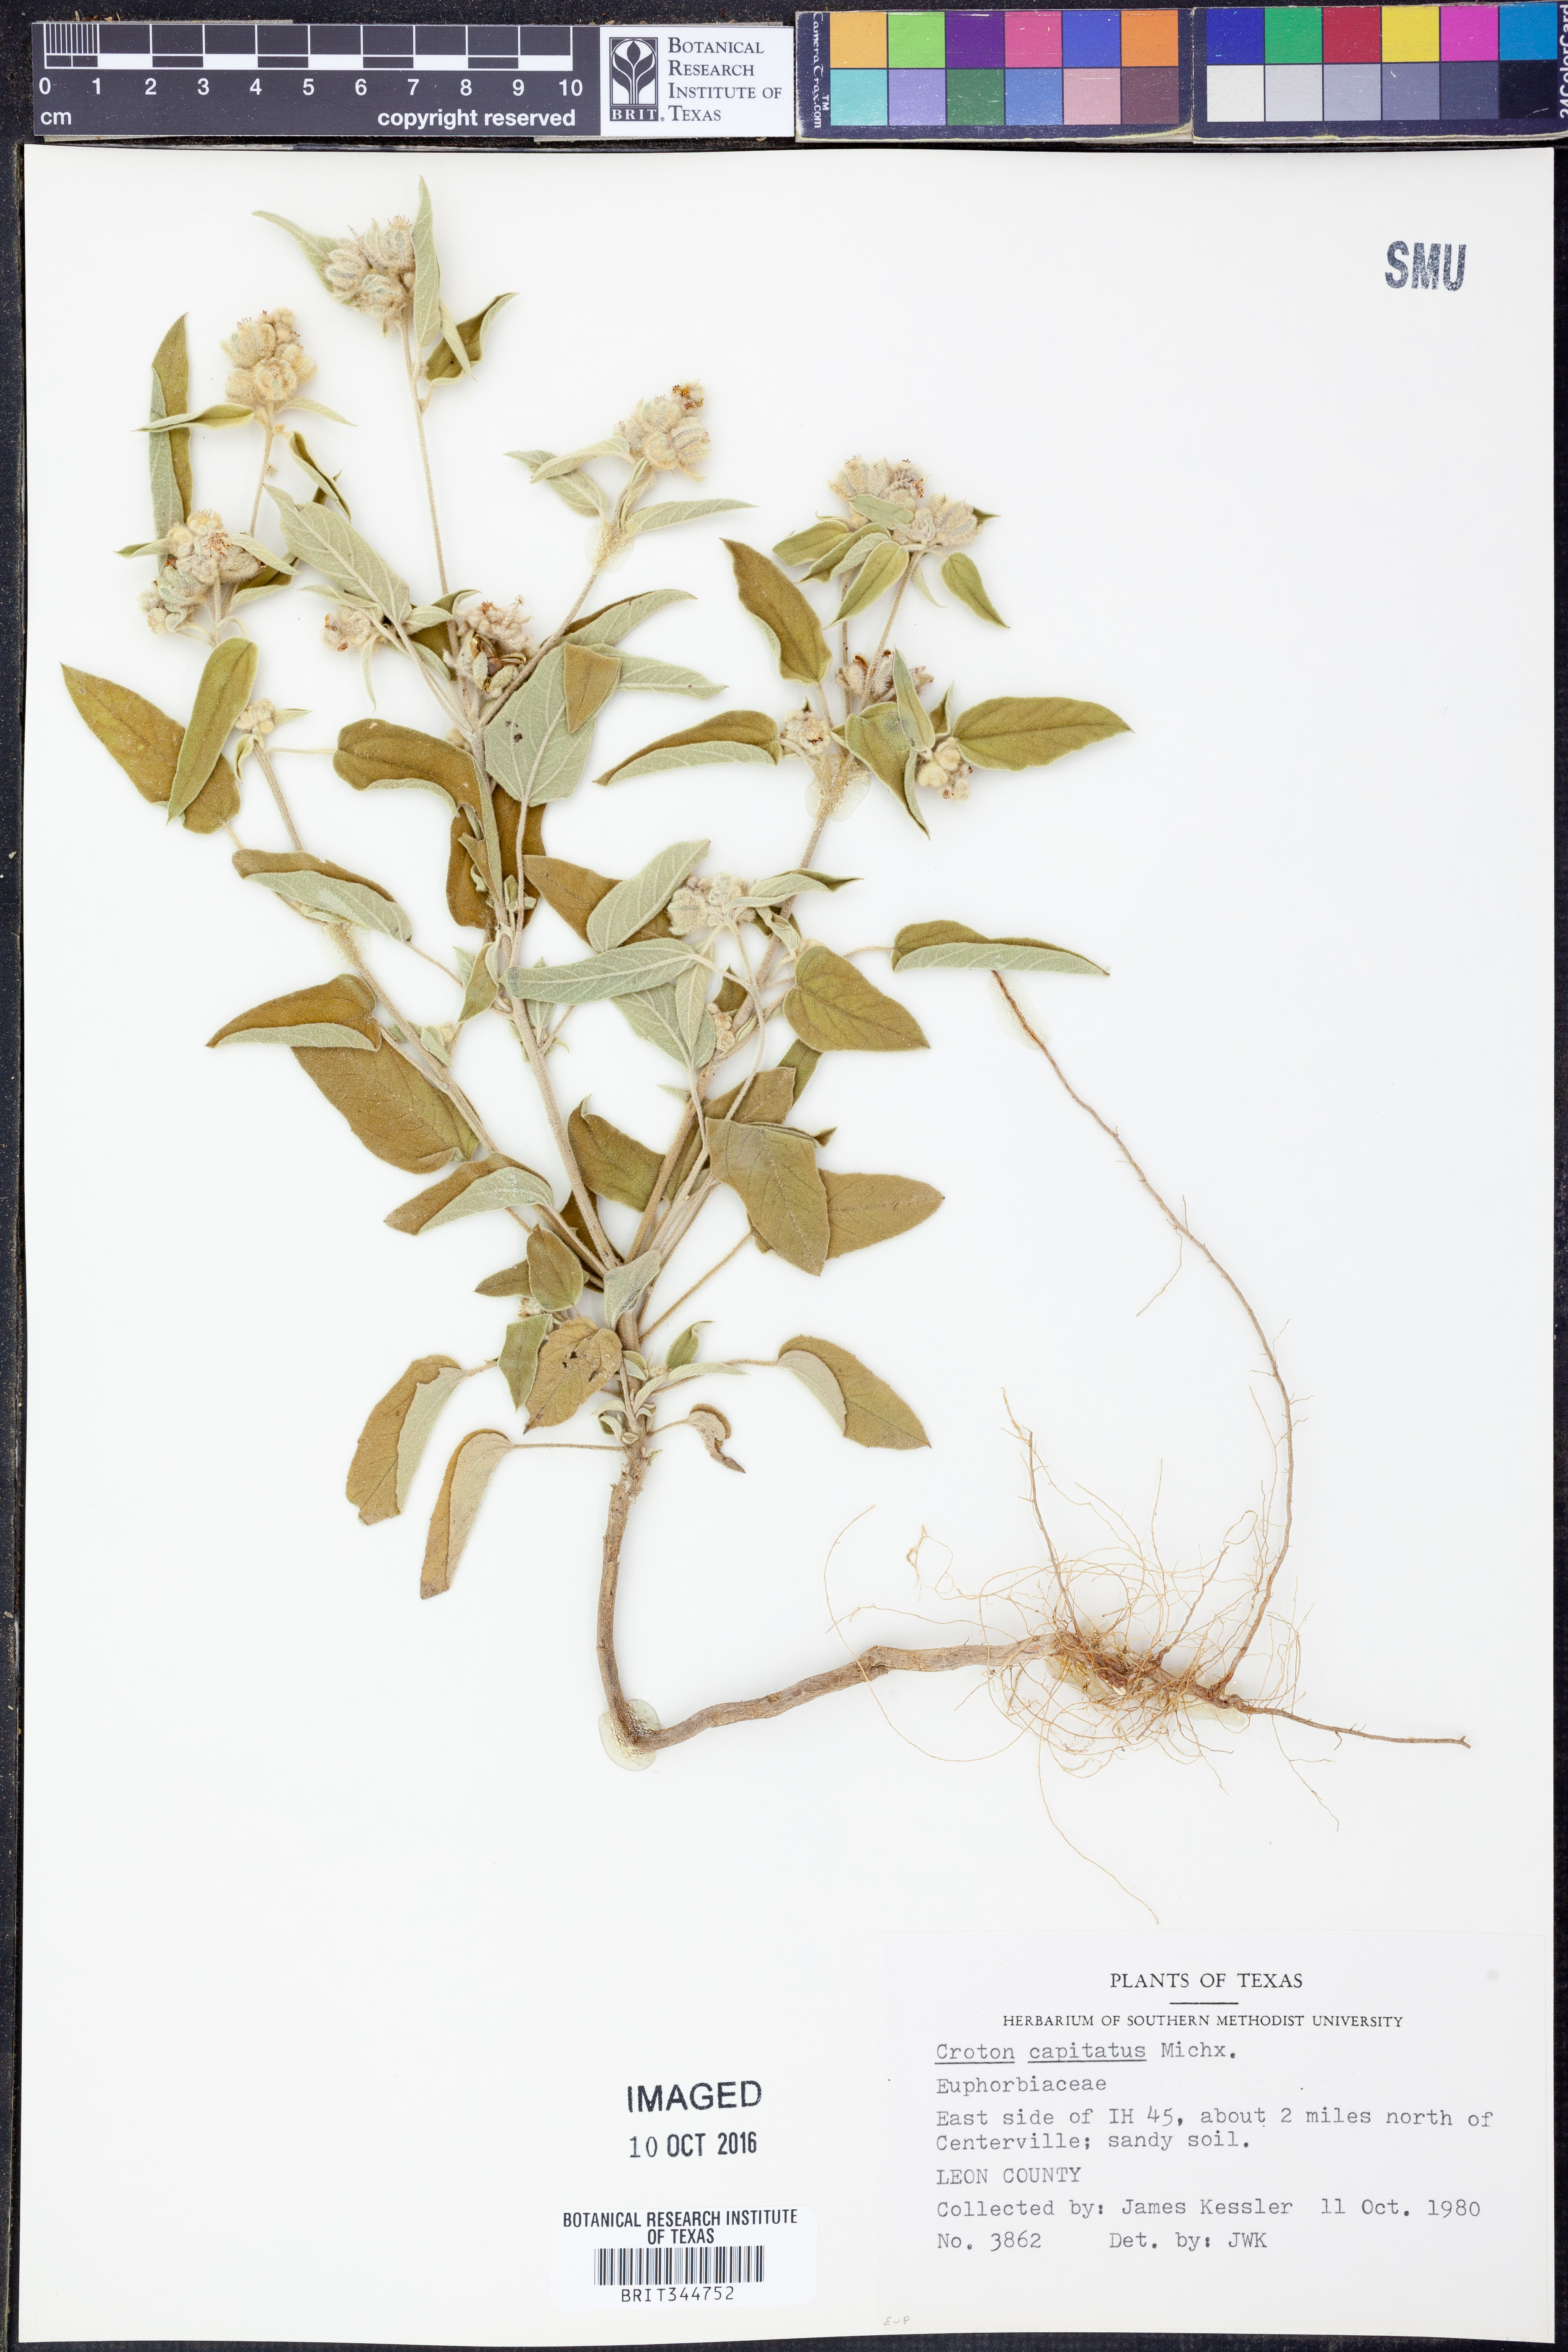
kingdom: Plantae
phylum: Tracheophyta
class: Magnoliopsida
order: Malpighiales
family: Euphorbiaceae
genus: Croton
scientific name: Croton capitatus
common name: Woolly croton
